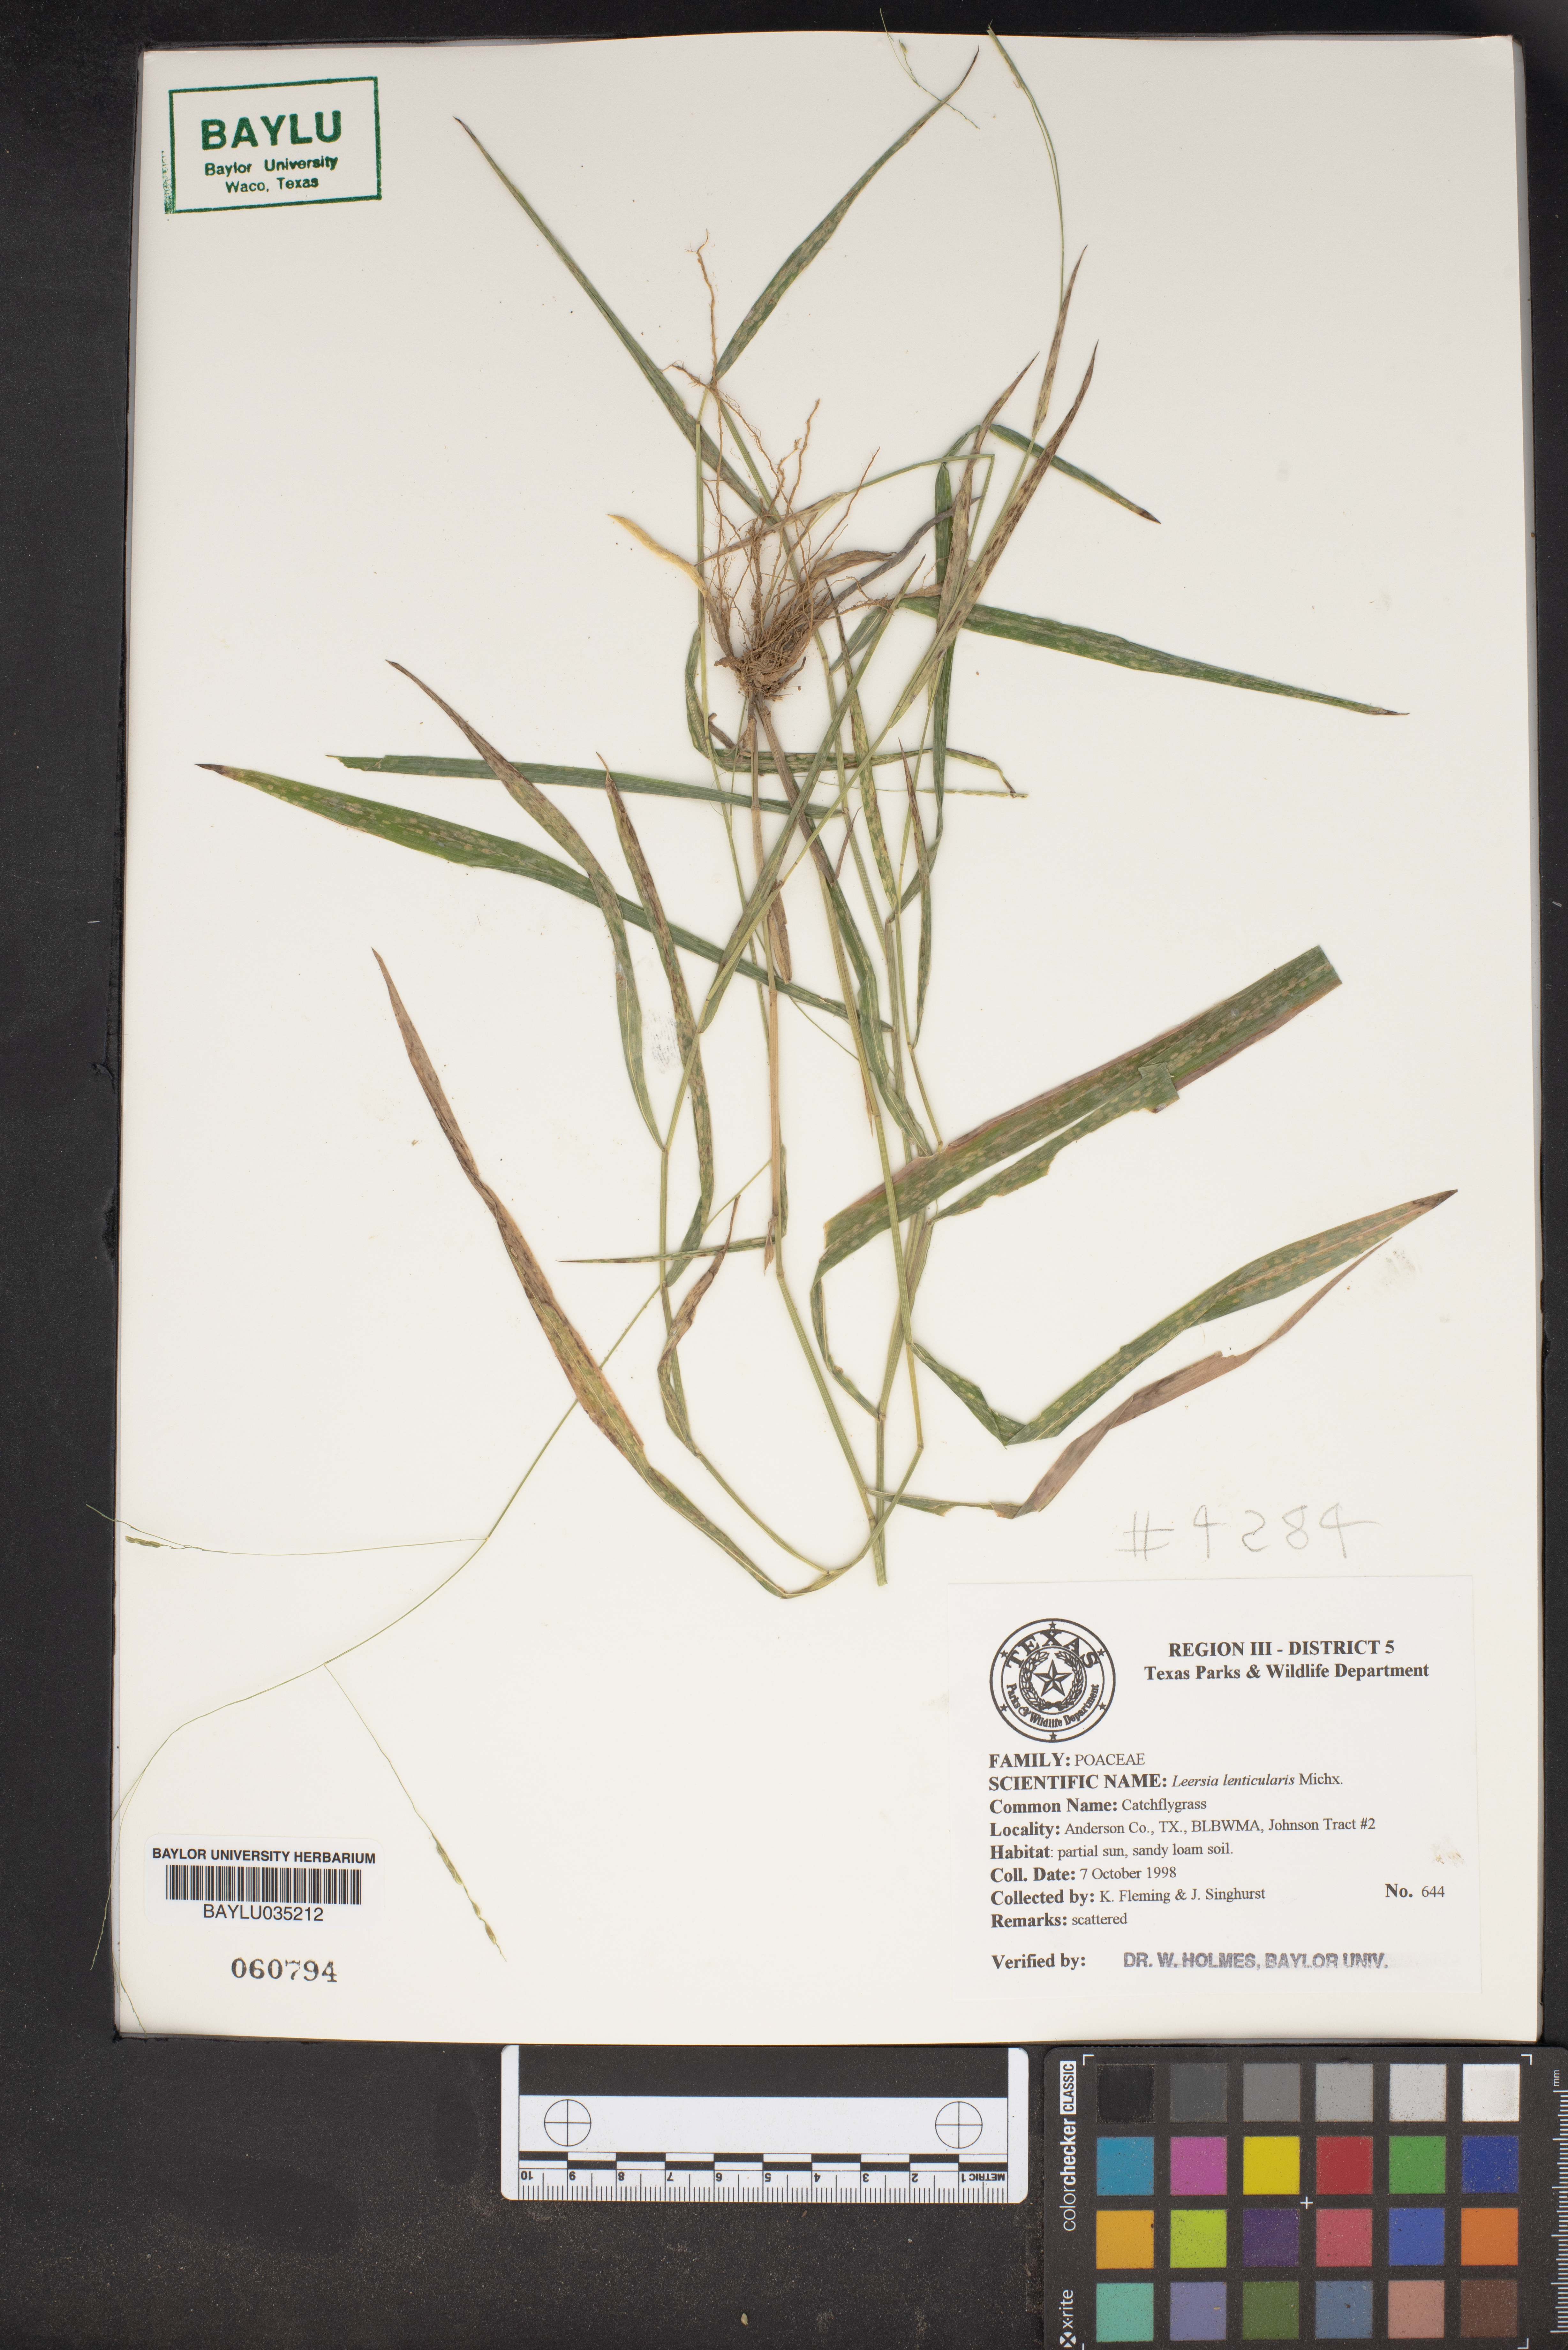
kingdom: Plantae
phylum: Tracheophyta
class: Liliopsida
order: Poales
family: Poaceae
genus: Leersia
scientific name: Leersia lenticularis
